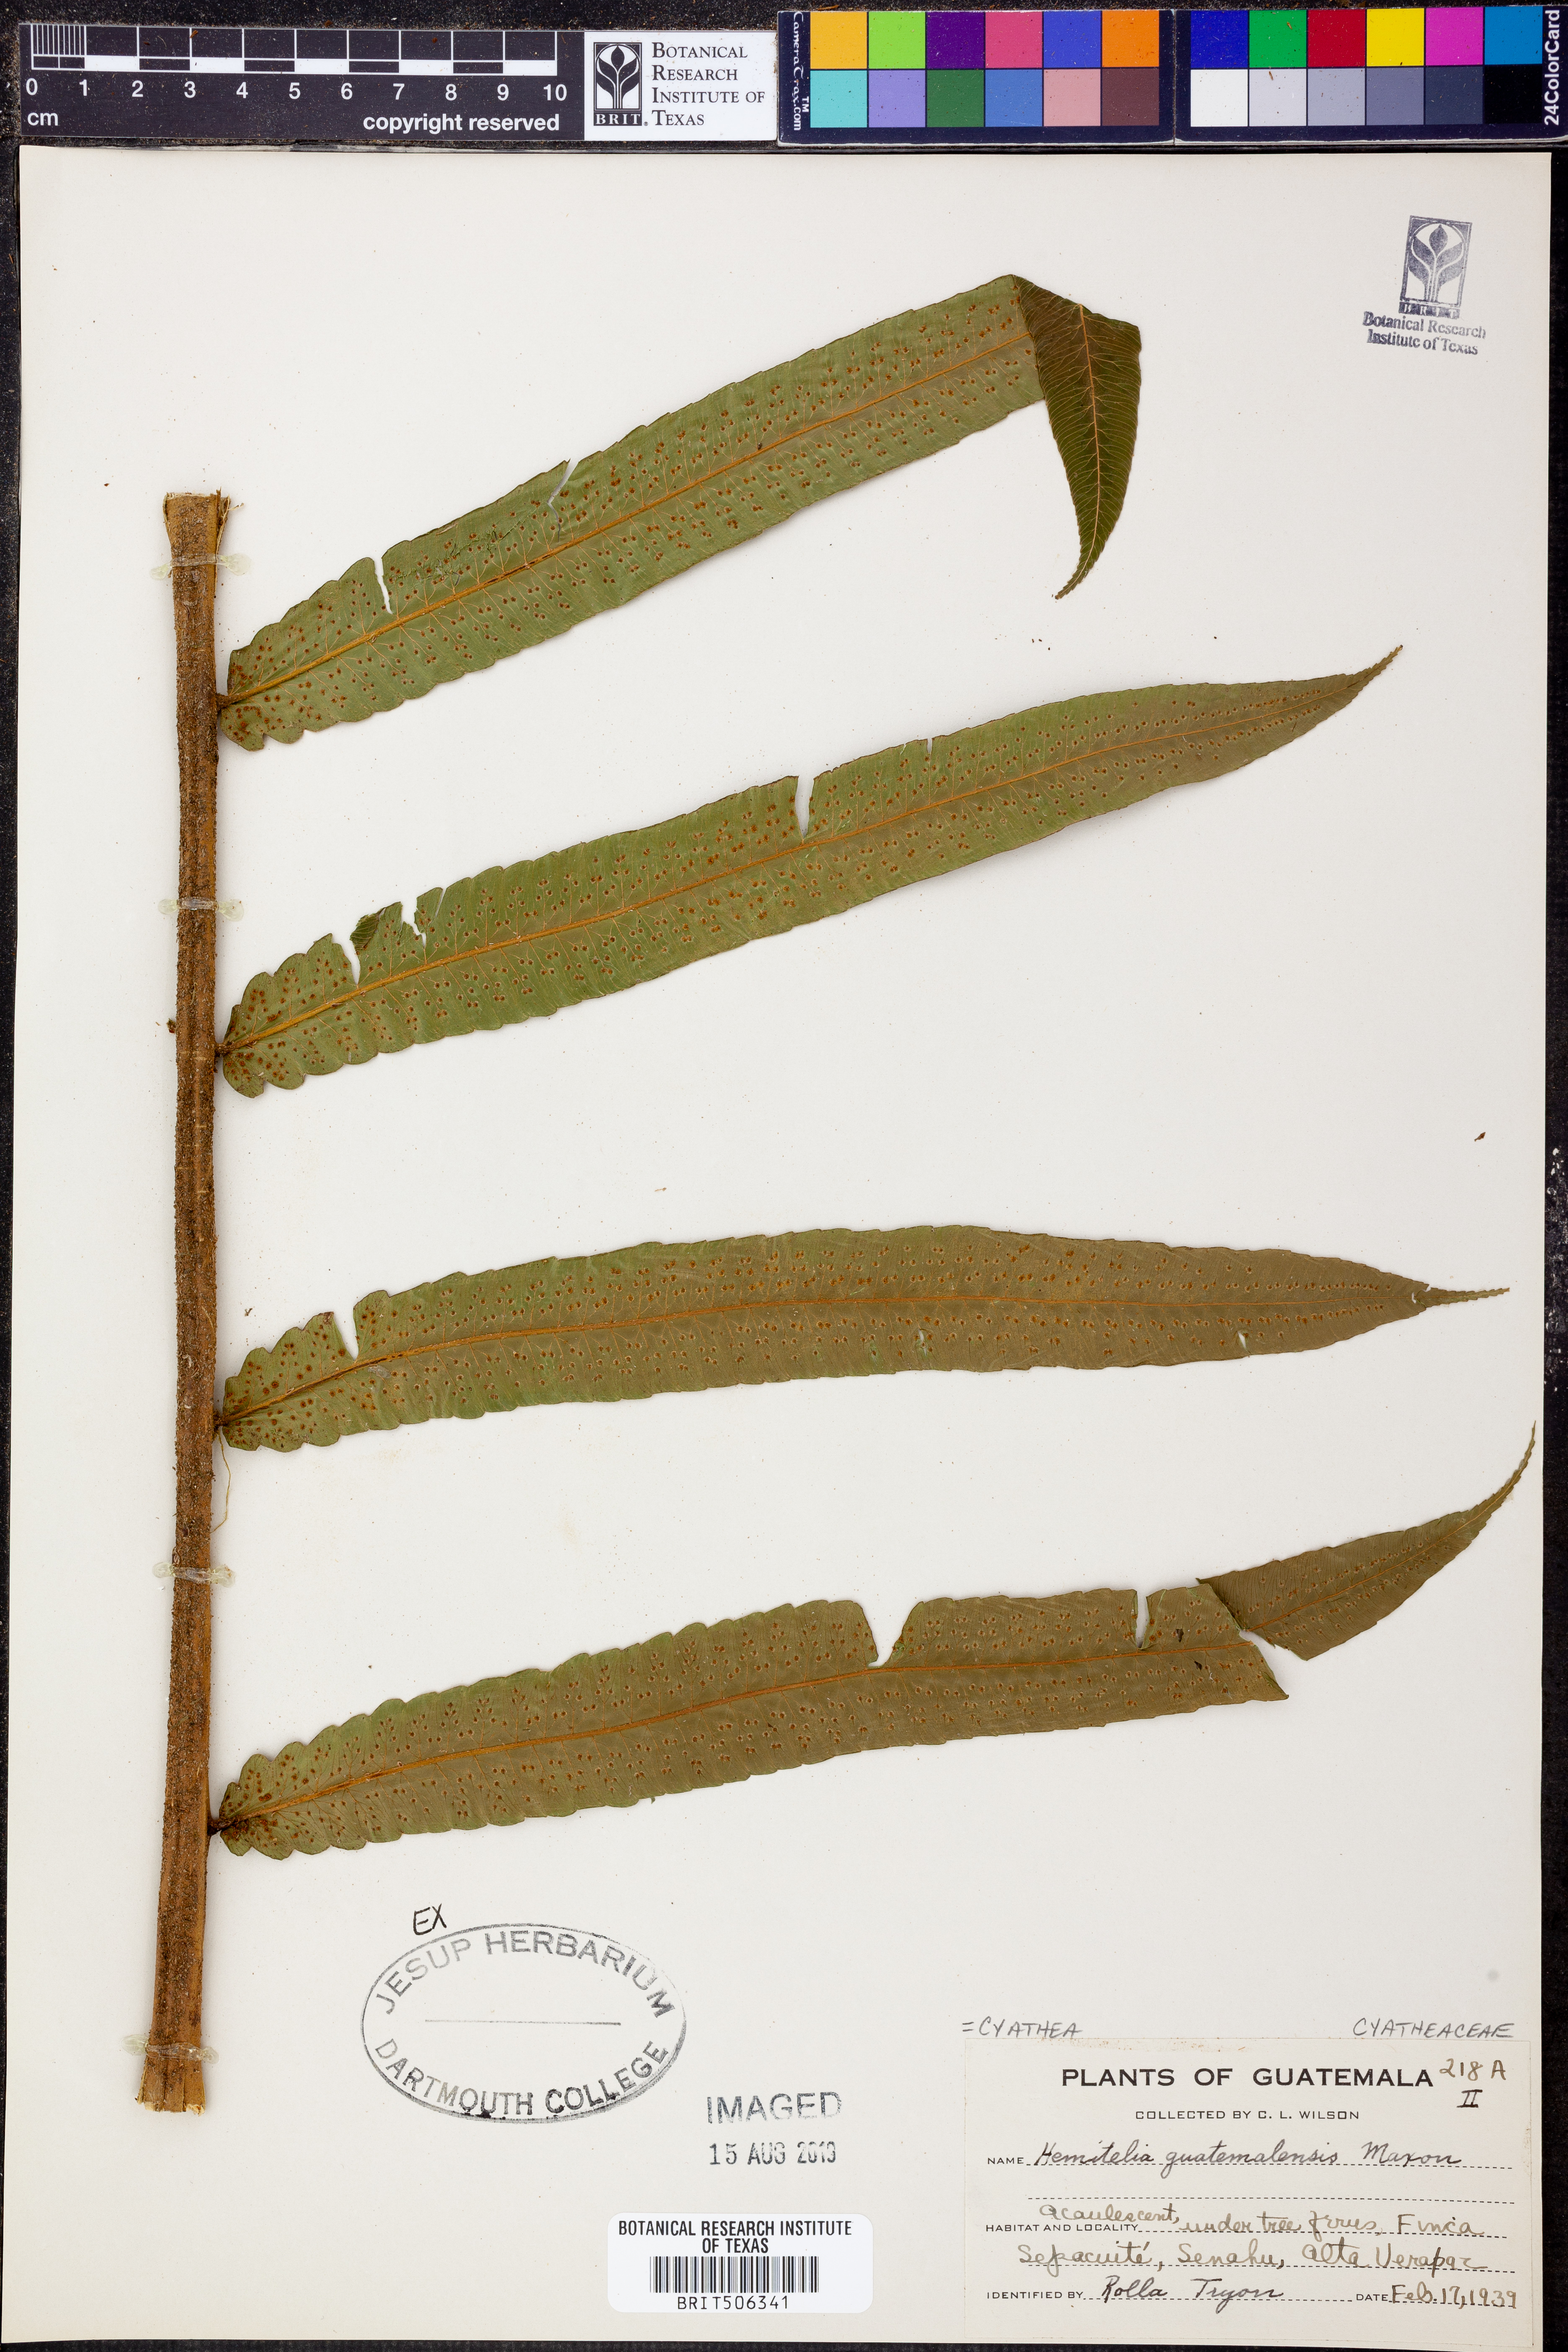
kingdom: Plantae
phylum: Tracheophyta
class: Polypodiopsida
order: Cyatheales
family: Cyatheaceae
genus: Cyathea
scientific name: Cyathea liebmannii
